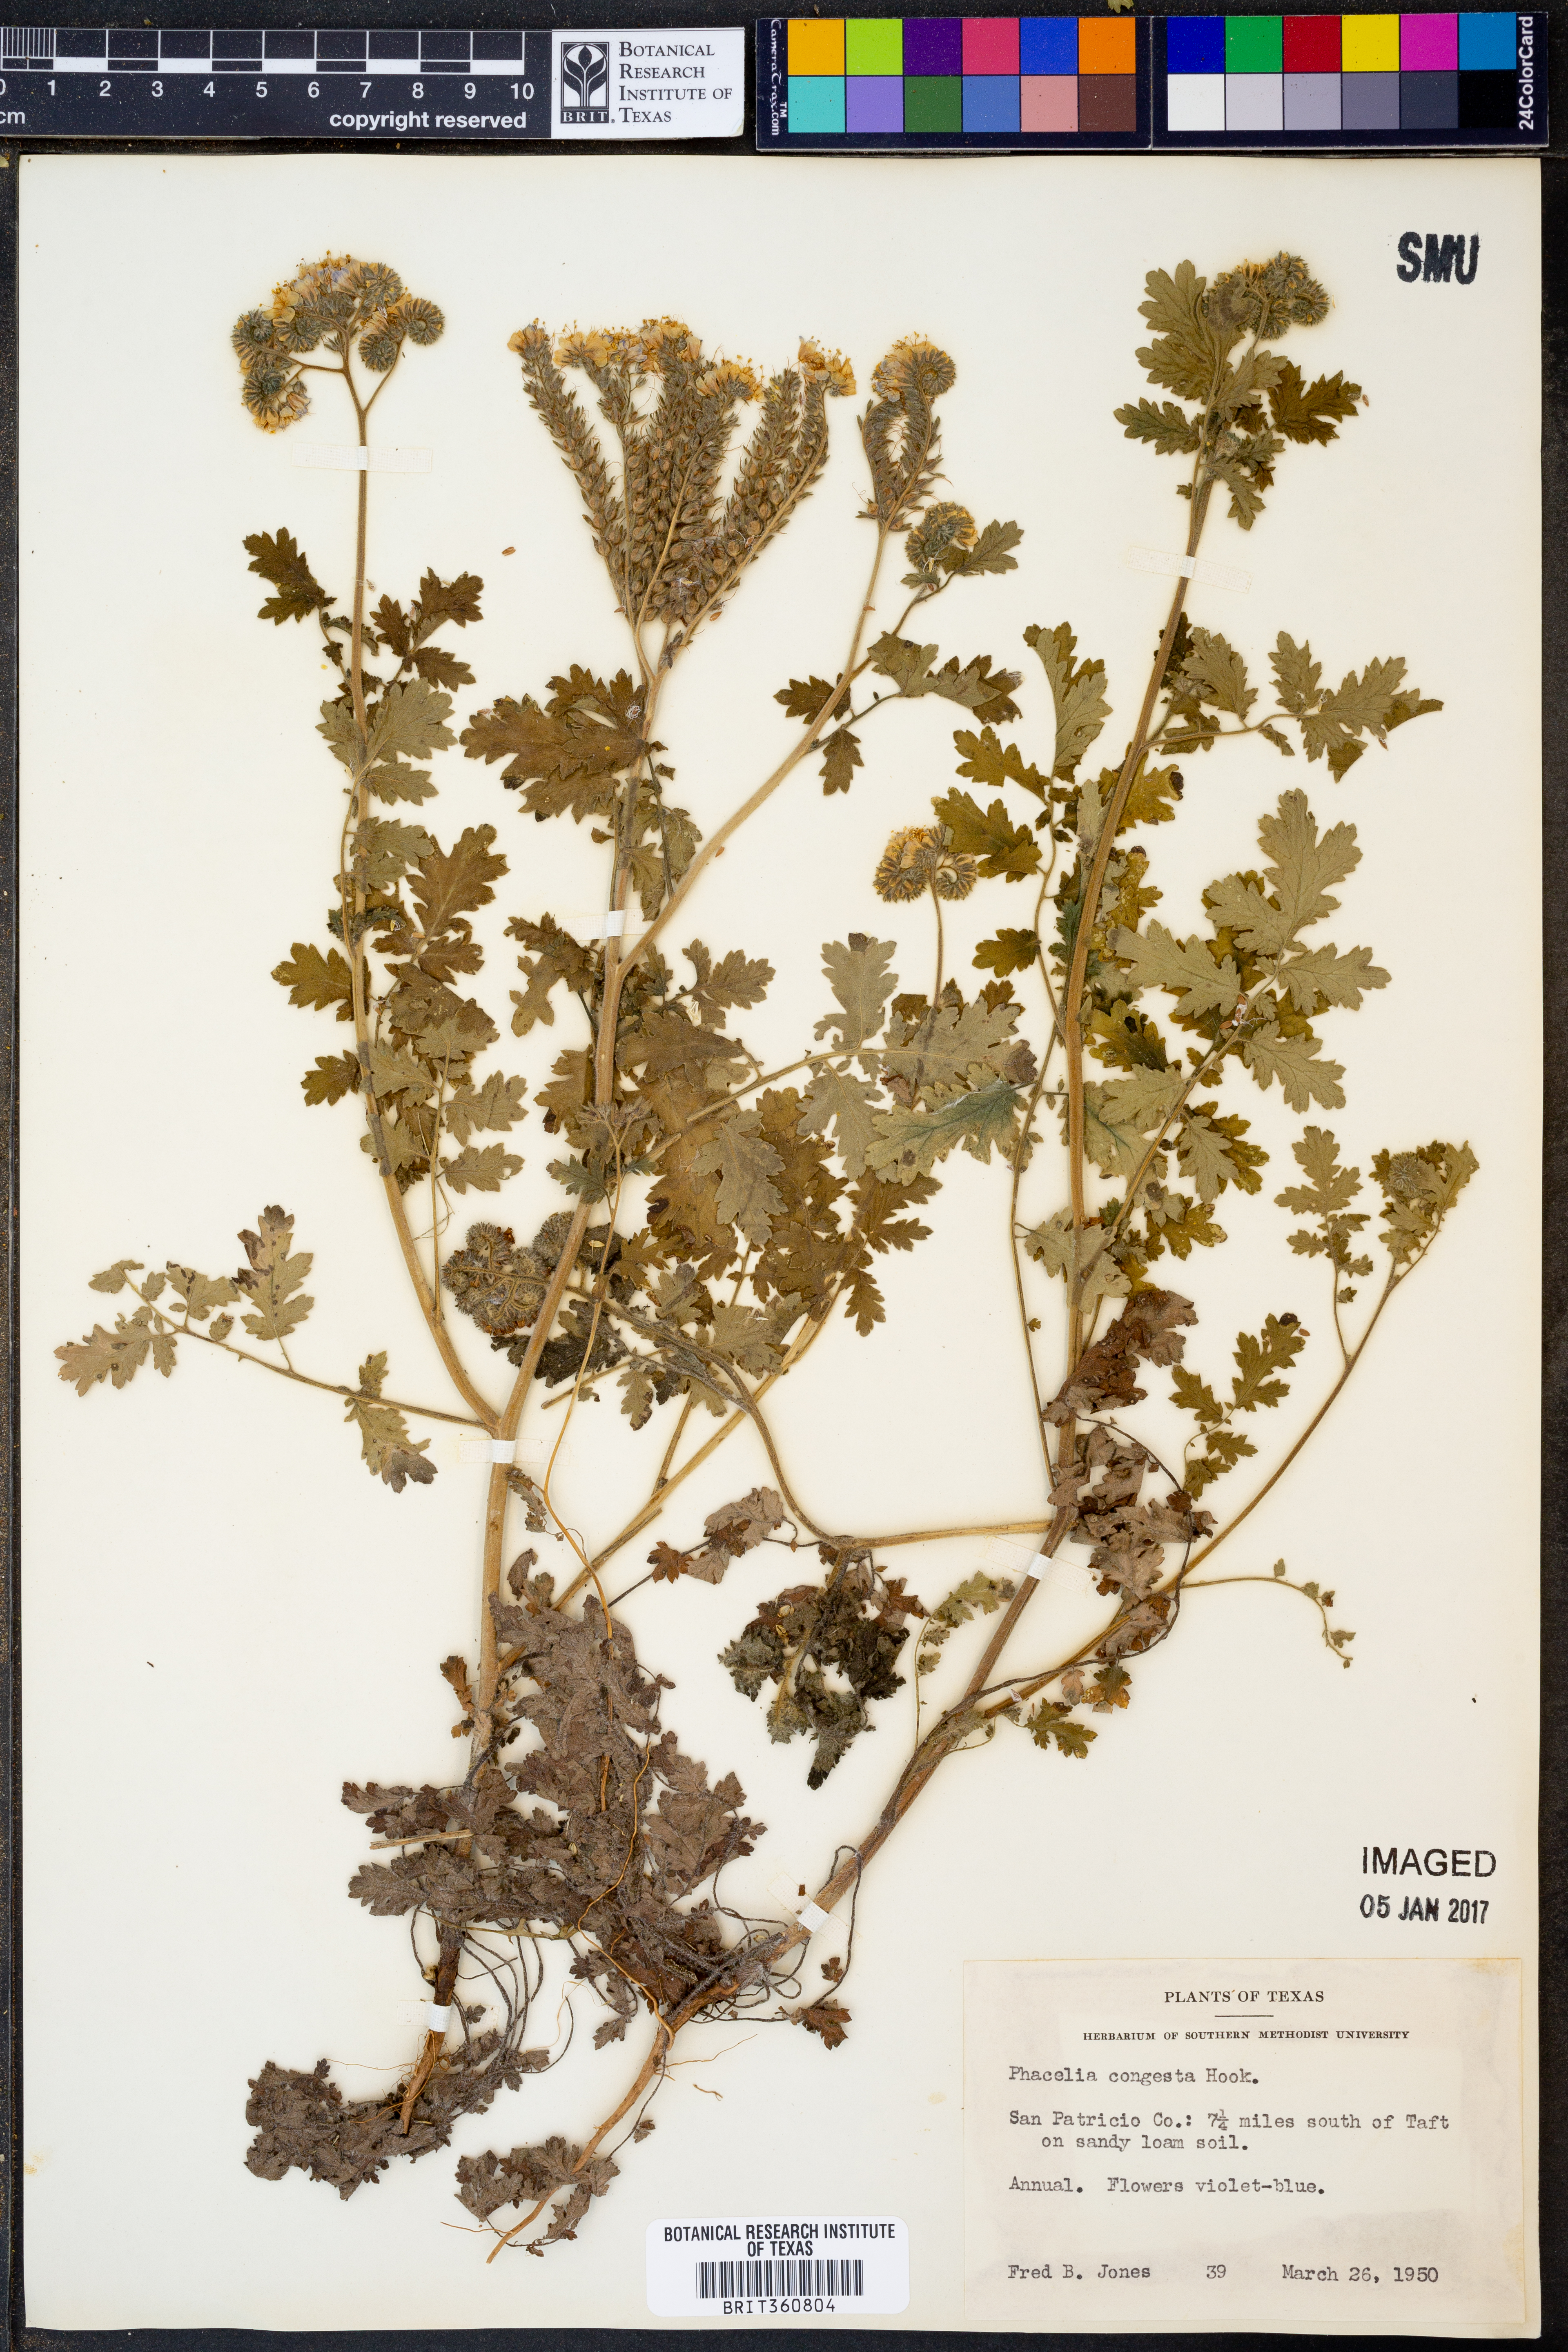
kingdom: Plantae
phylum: Tracheophyta
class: Magnoliopsida
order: Boraginales
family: Hydrophyllaceae
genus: Phacelia
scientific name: Phacelia congesta
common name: Blue curls
